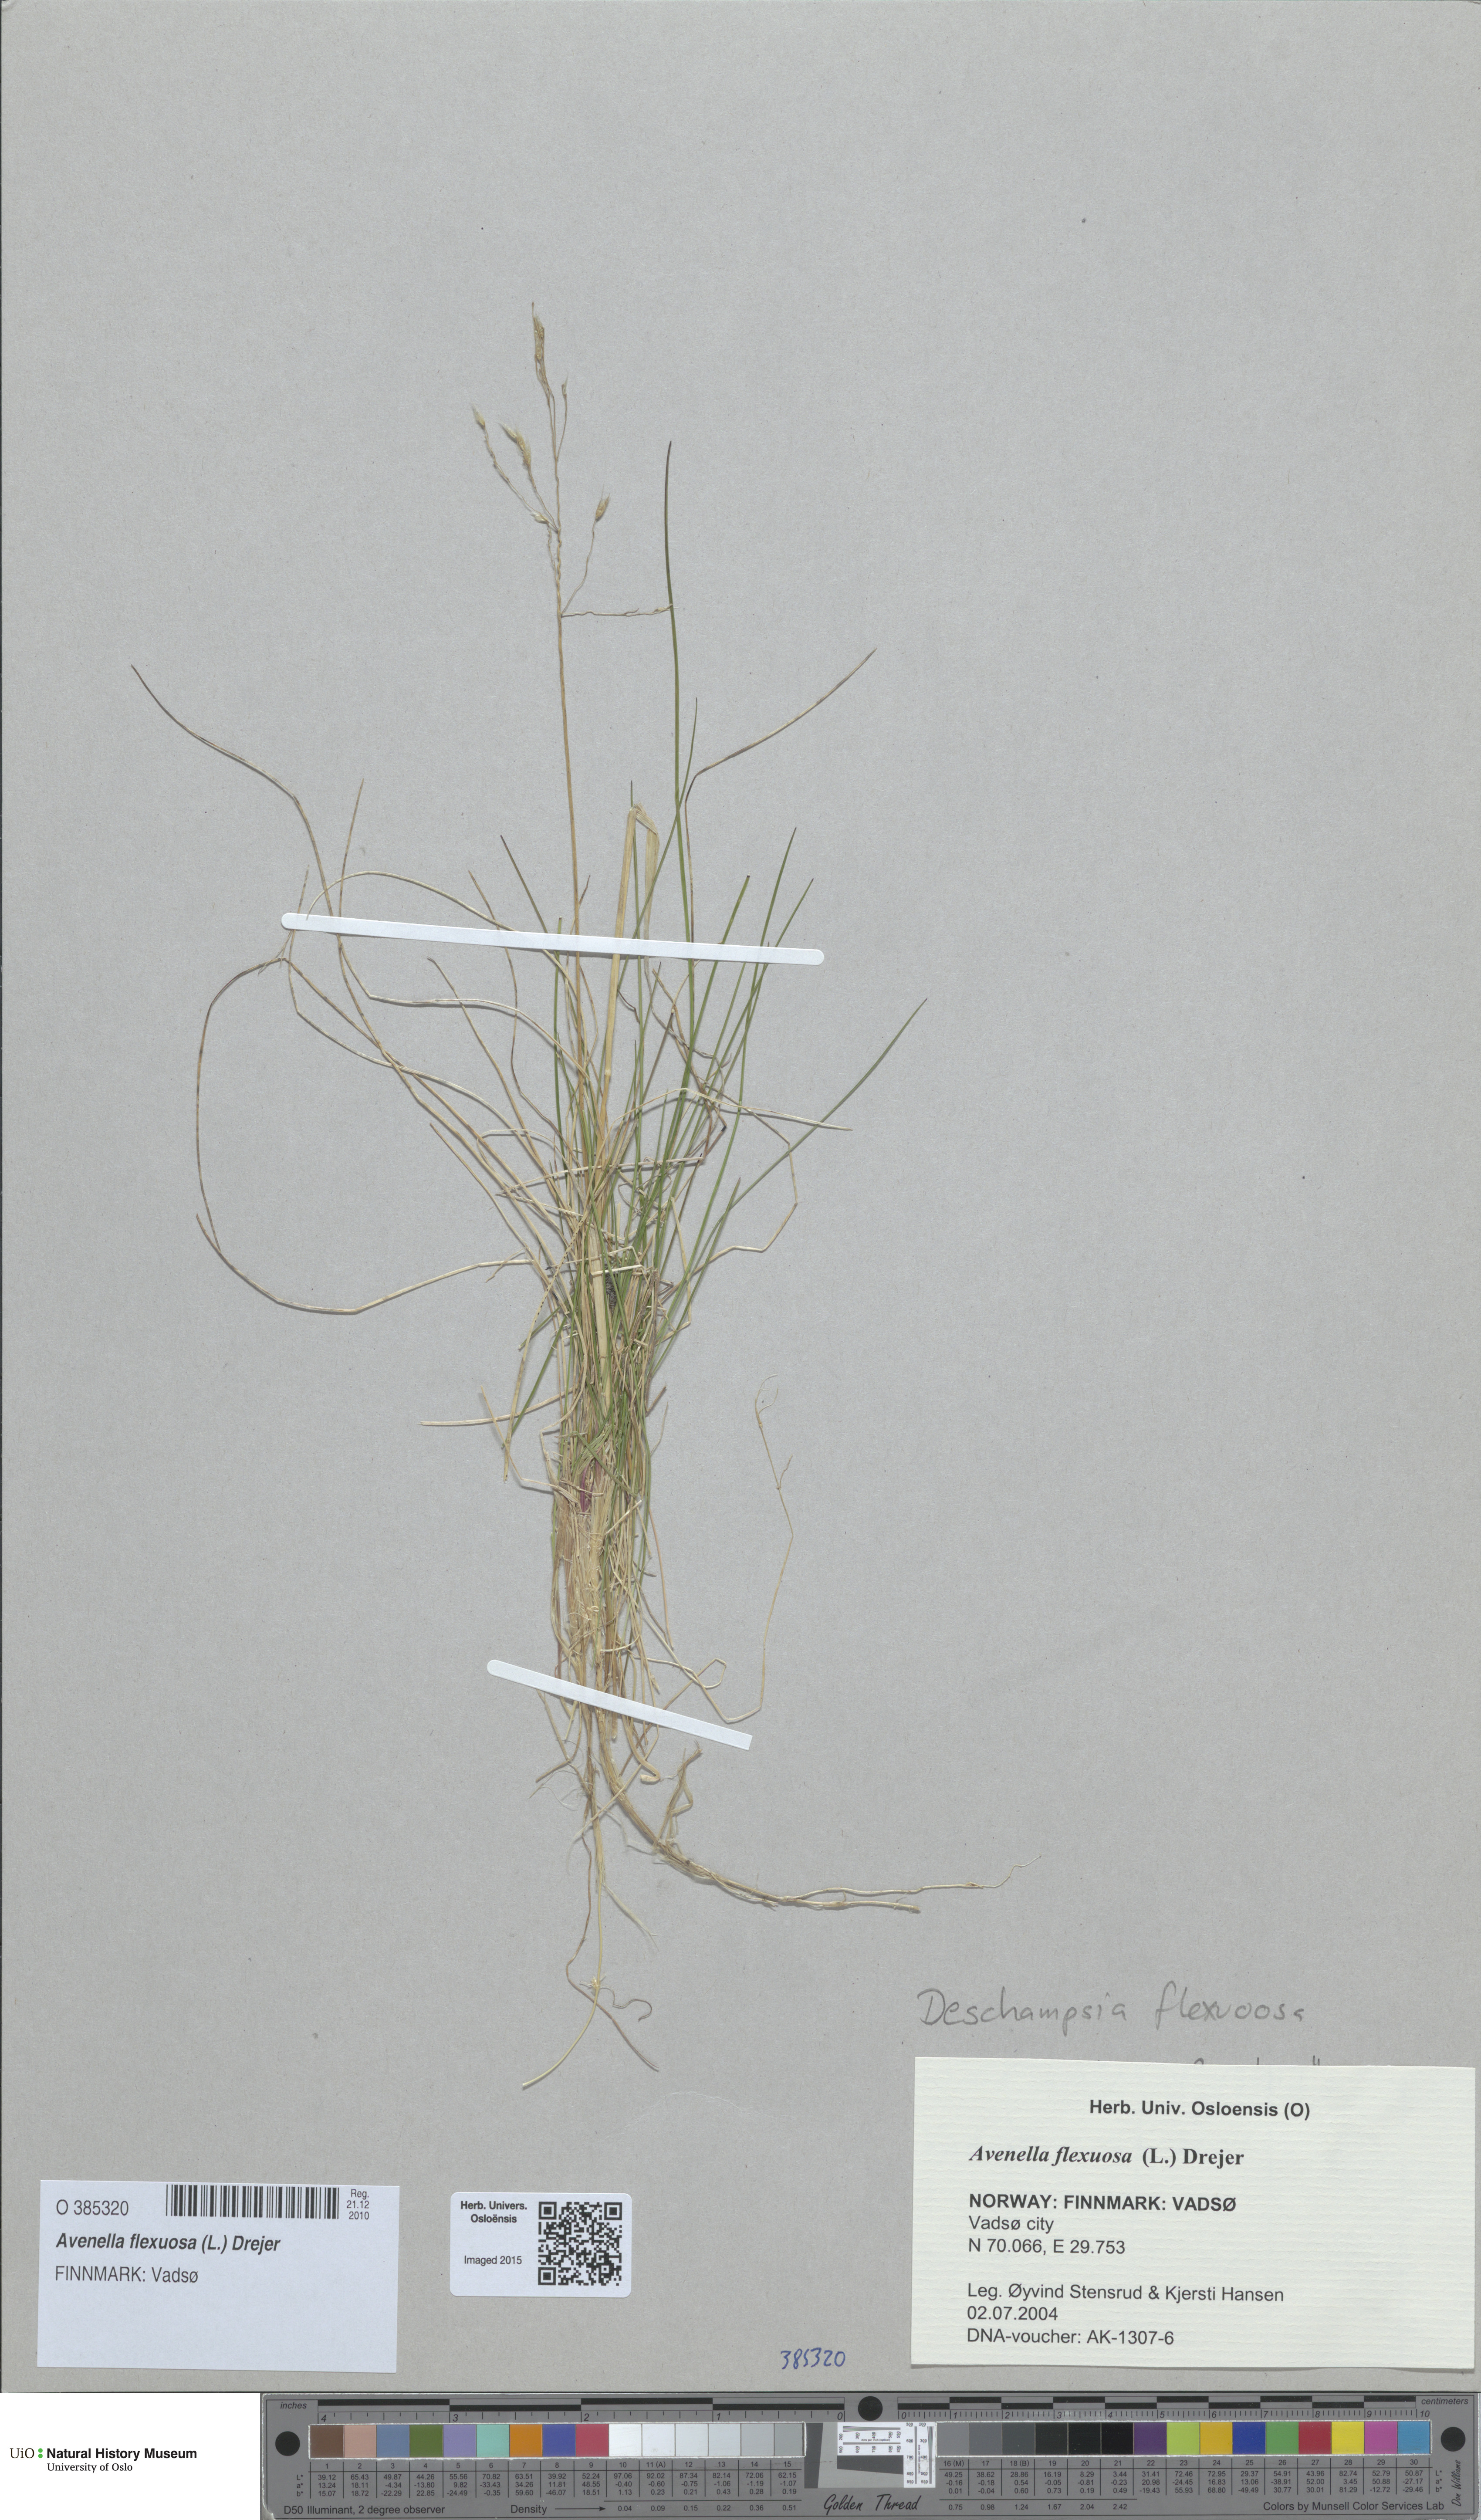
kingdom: Plantae
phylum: Tracheophyta
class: Liliopsida
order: Poales
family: Poaceae
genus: Avenella
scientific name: Avenella flexuosa
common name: Wavy hairgrass
